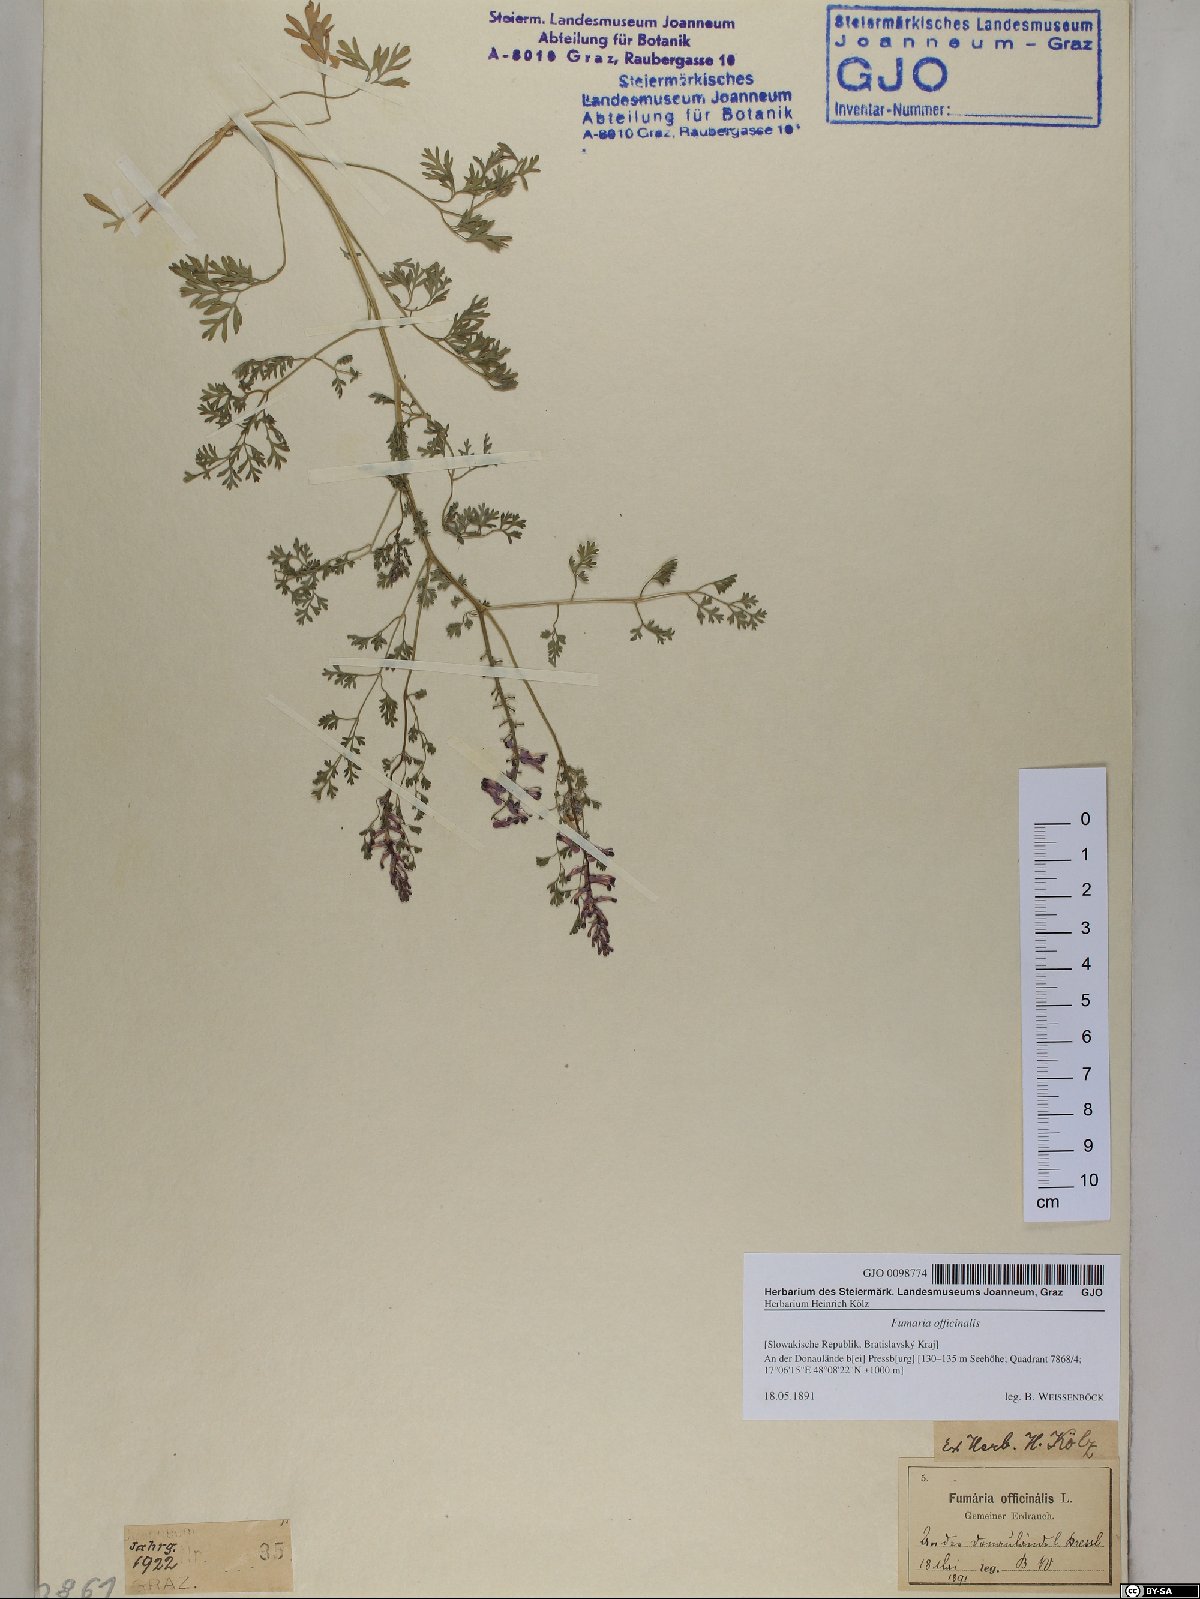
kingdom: Plantae
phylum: Tracheophyta
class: Magnoliopsida
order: Ranunculales
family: Papaveraceae
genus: Fumaria
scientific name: Fumaria officinalis
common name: Common fumitory
